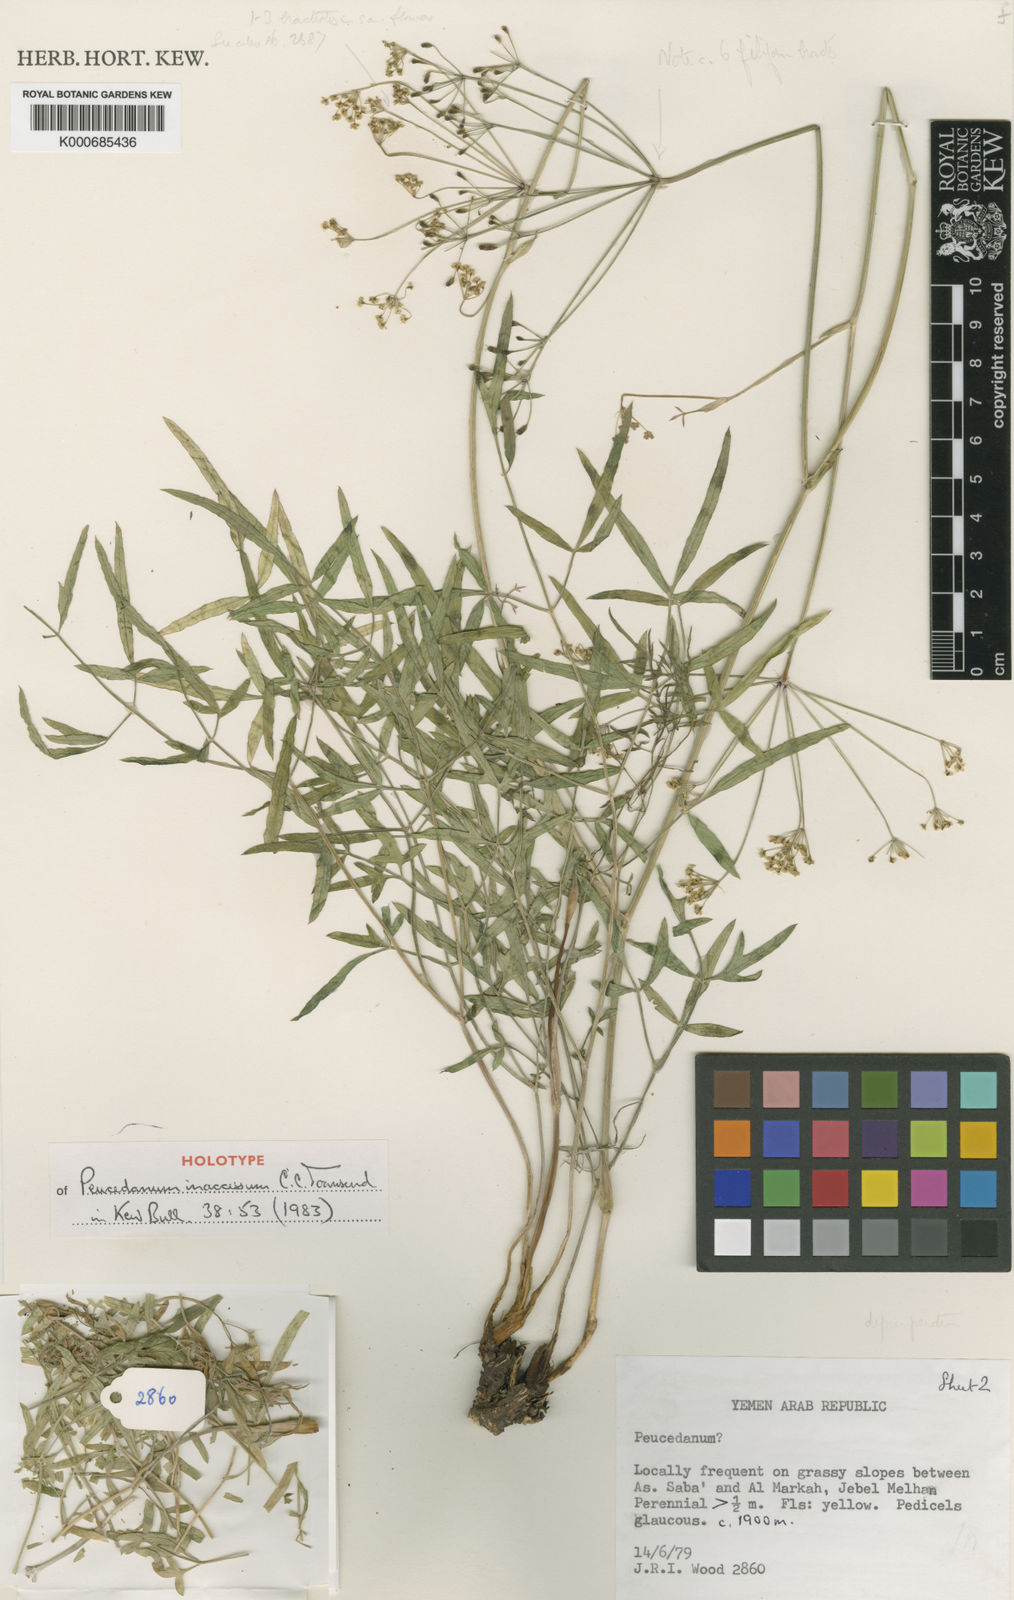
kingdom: Plantae
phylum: Tracheophyta
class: Magnoliopsida
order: Apiales
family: Apiaceae
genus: Ducrosia
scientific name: Ducrosia inaccessa
